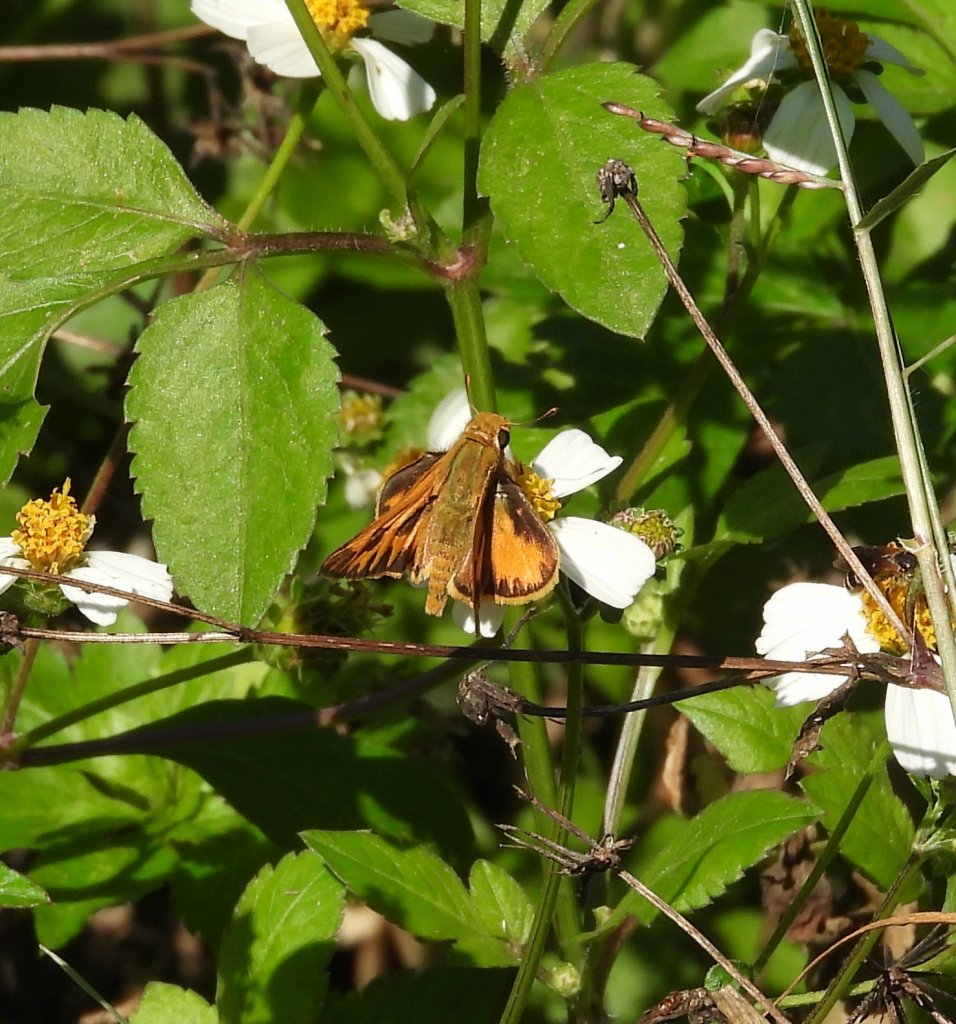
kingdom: Animalia
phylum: Arthropoda
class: Insecta
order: Lepidoptera
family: Hesperiidae
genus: Hylephila
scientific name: Hylephila phyleus
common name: Fiery Skipper
